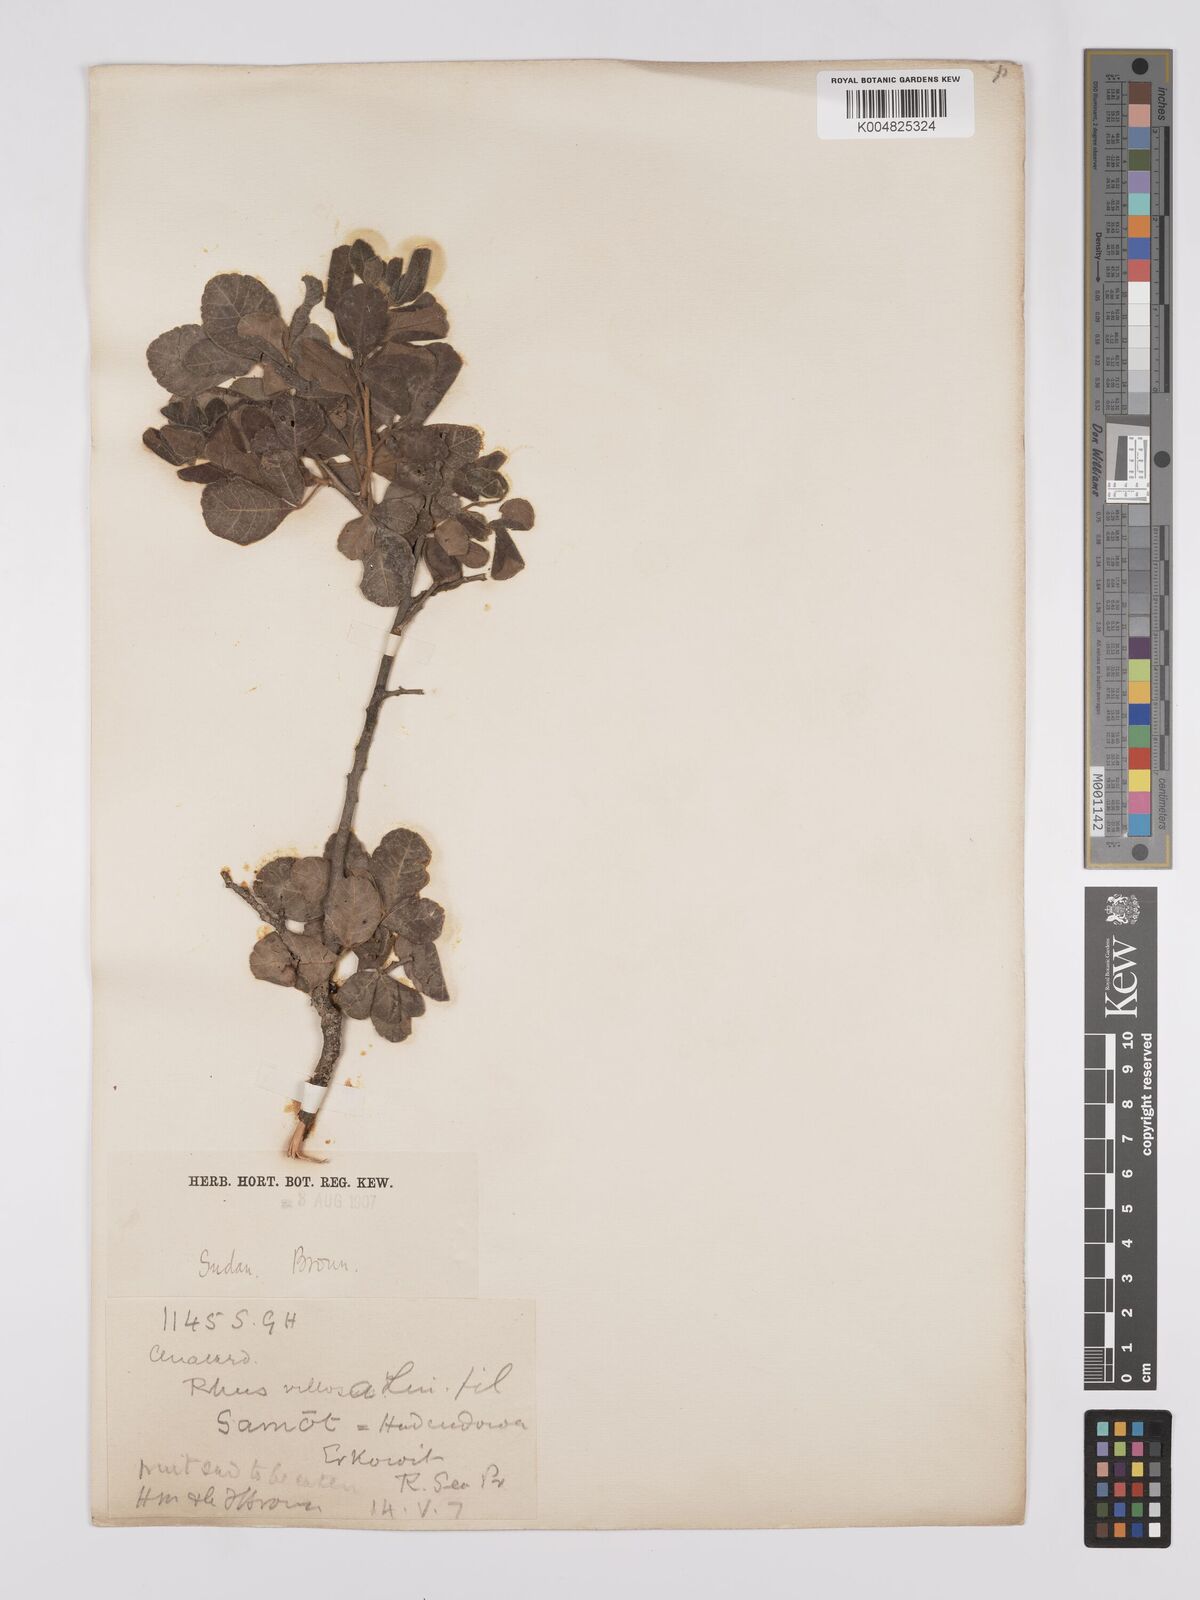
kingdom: Plantae
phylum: Tracheophyta
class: Magnoliopsida
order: Sapindales
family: Anacardiaceae
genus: Searsia
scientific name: Searsia flexicaulis
